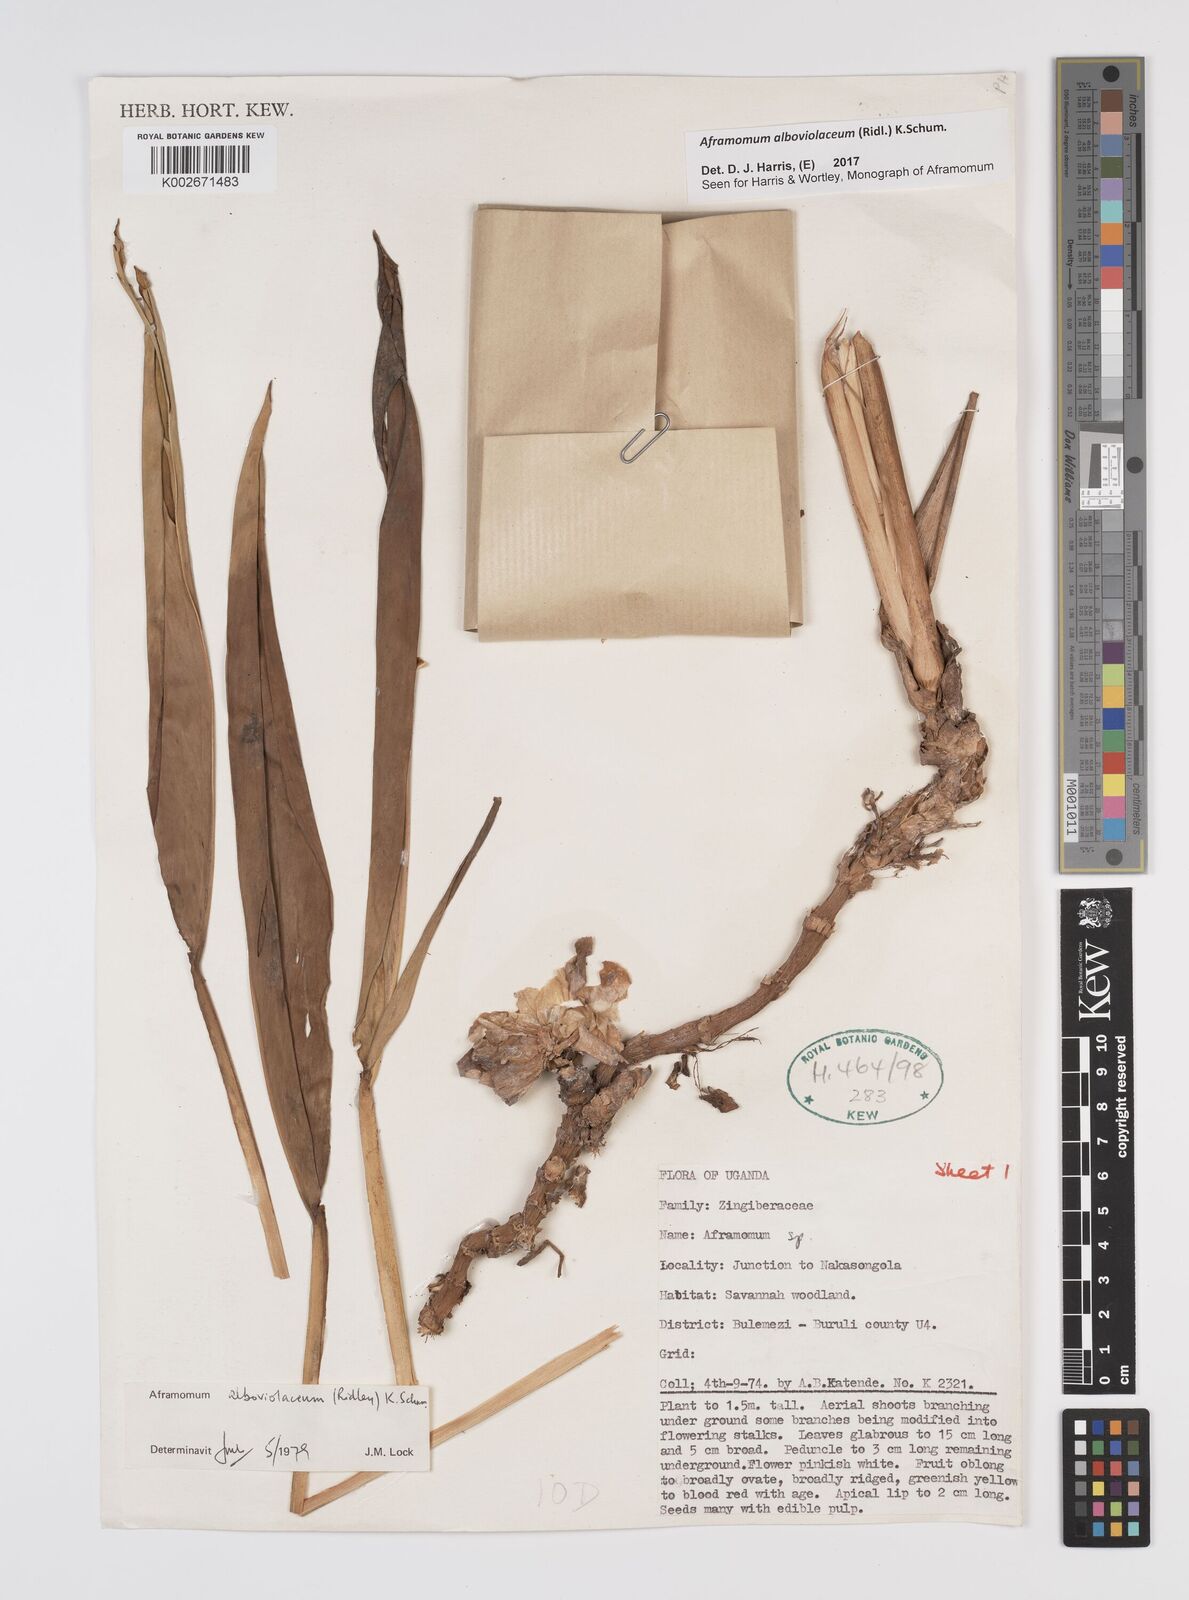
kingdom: Plantae
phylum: Tracheophyta
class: Liliopsida
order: Zingiberales
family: Zingiberaceae
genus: Aframomum
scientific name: Aframomum alboviolaceum
